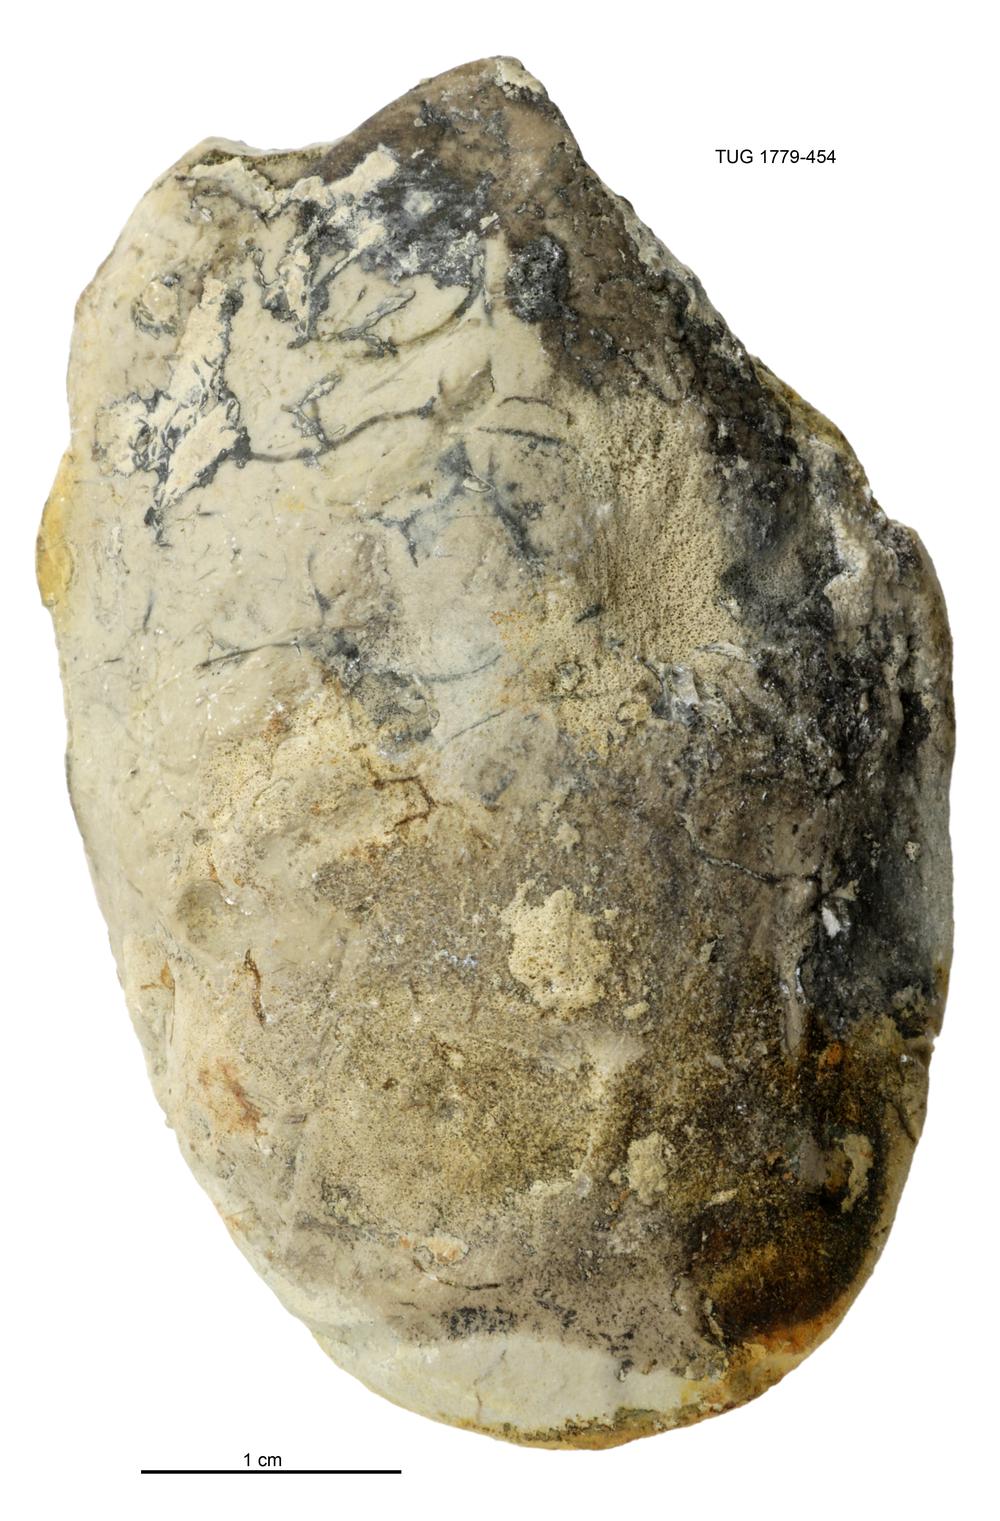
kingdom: Animalia
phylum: Mollusca
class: Bivalvia
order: Modiomorphida
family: Modiomorphidae
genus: Modiolopsis
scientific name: Modiolopsis
